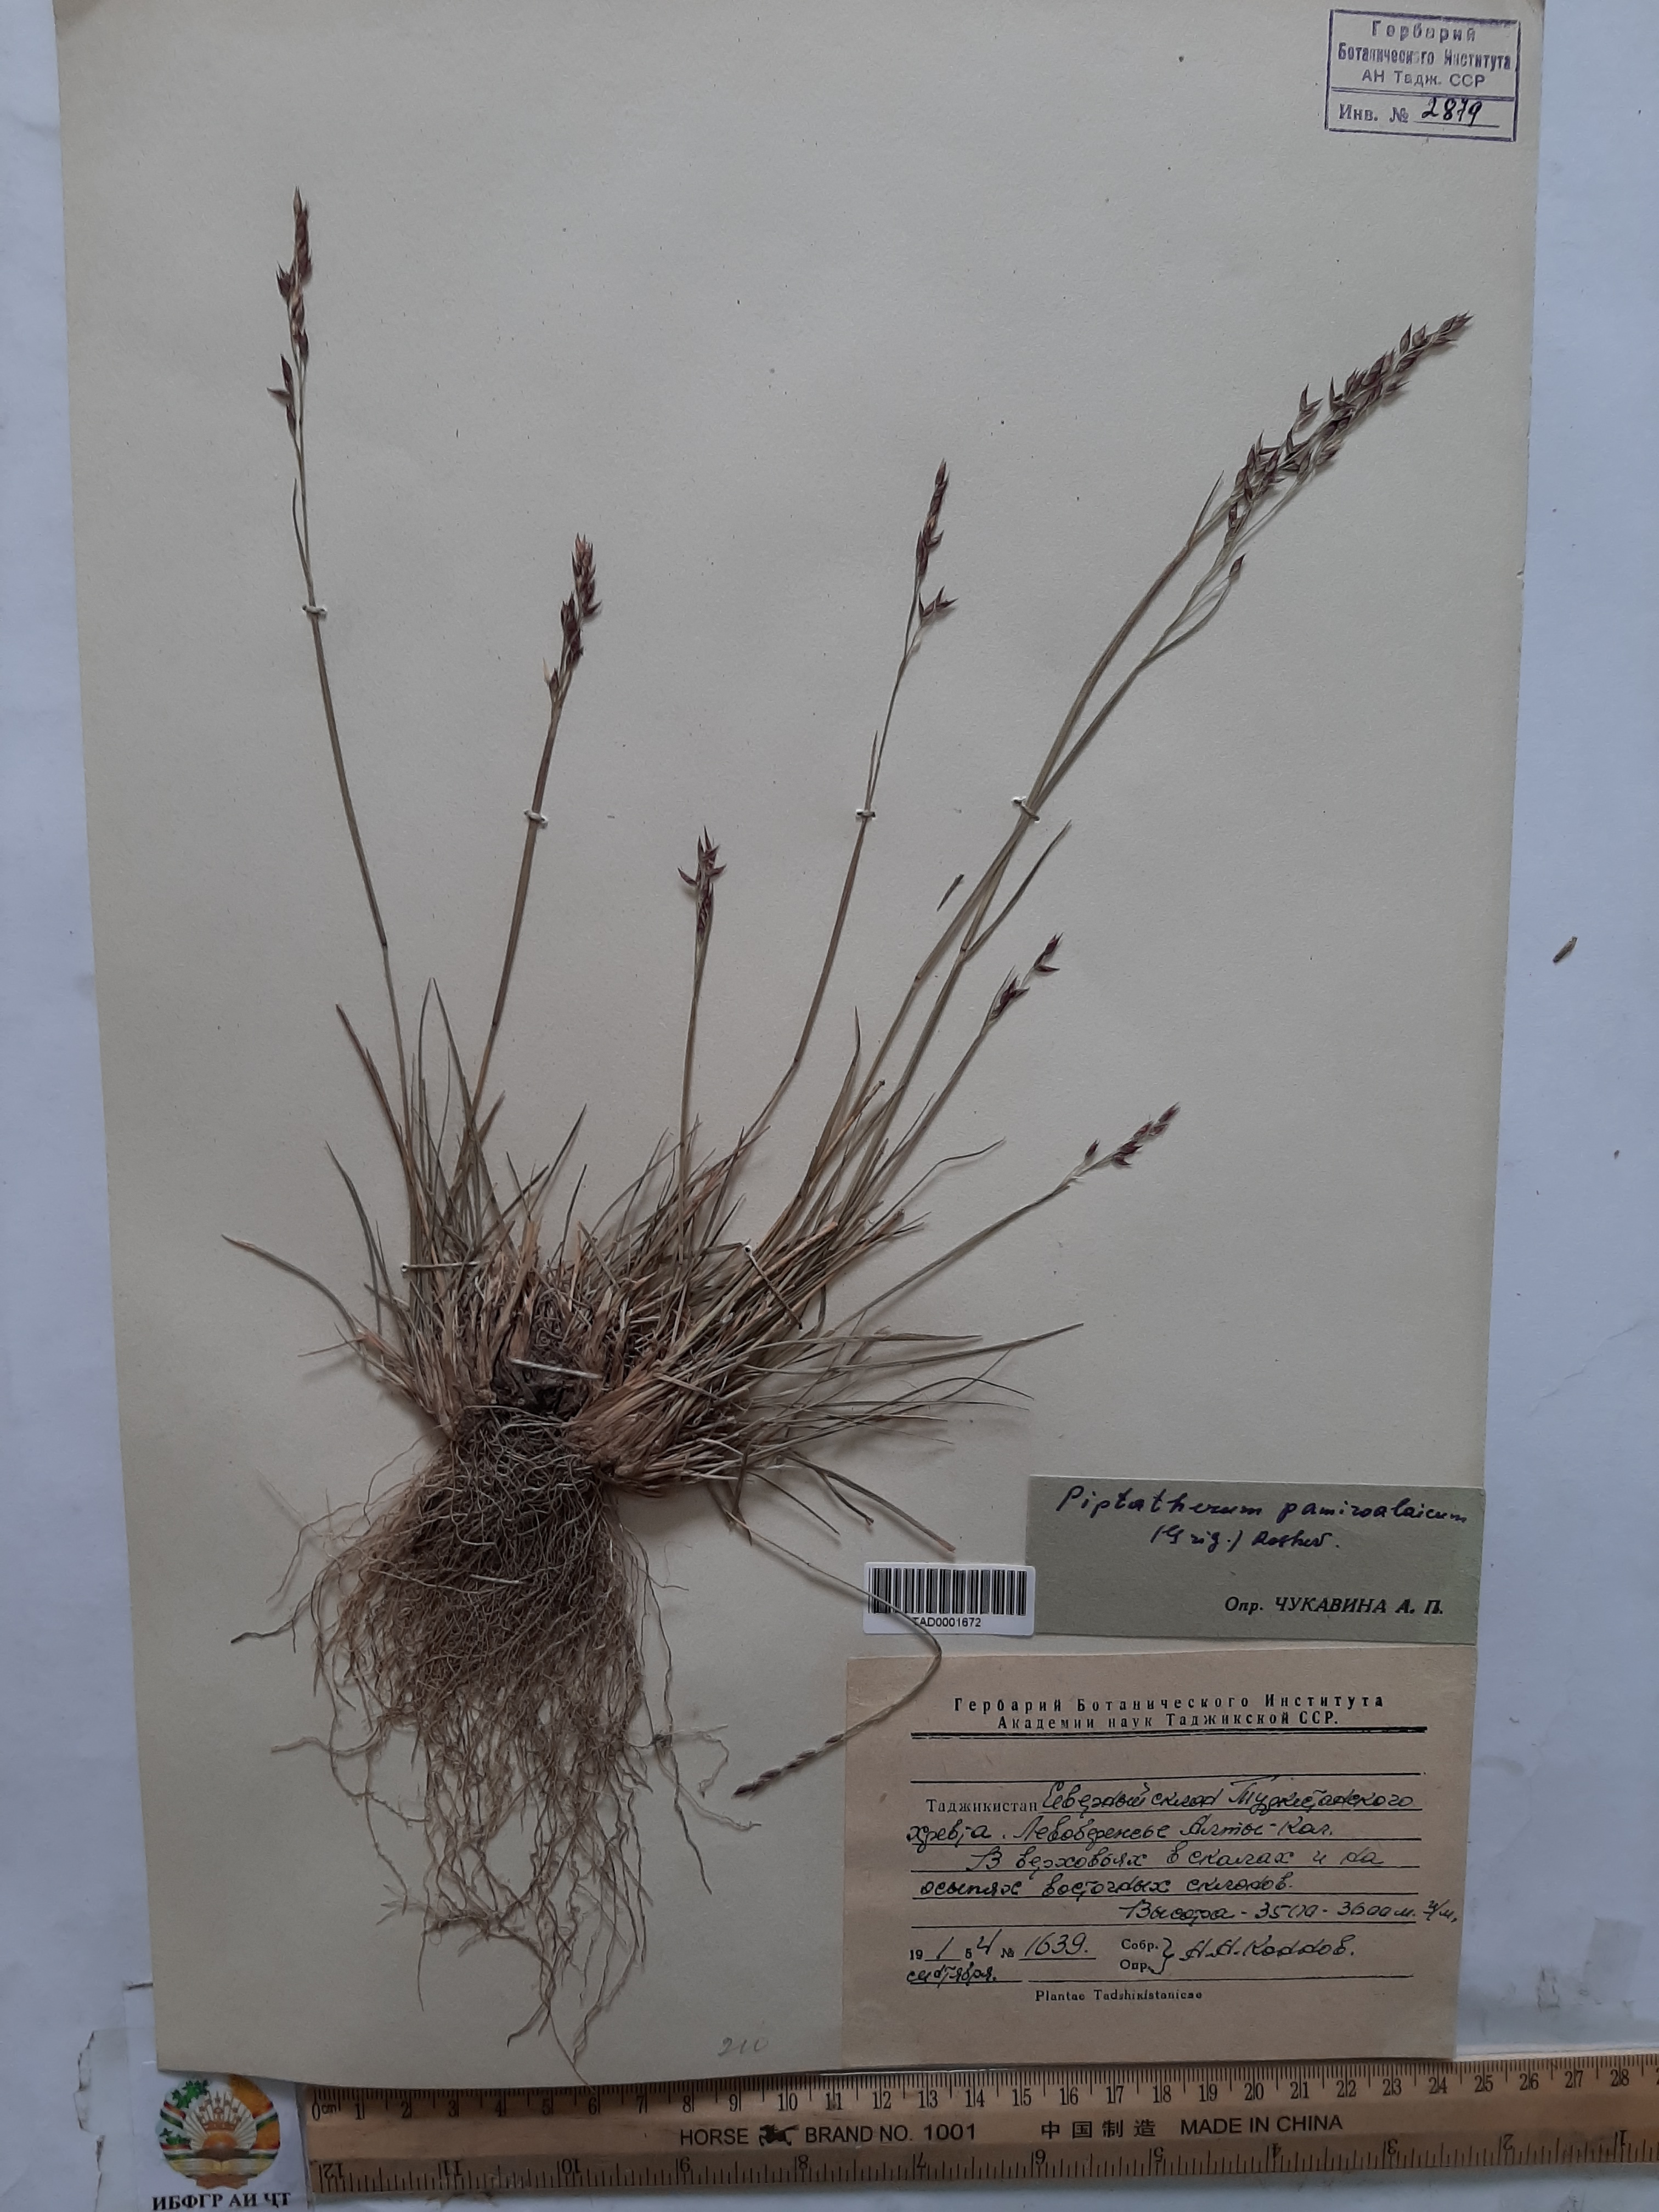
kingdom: Plantae
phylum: Tracheophyta
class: Liliopsida
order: Poales
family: Poaceae
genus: Piptatherum
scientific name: Piptatherum latifolium
